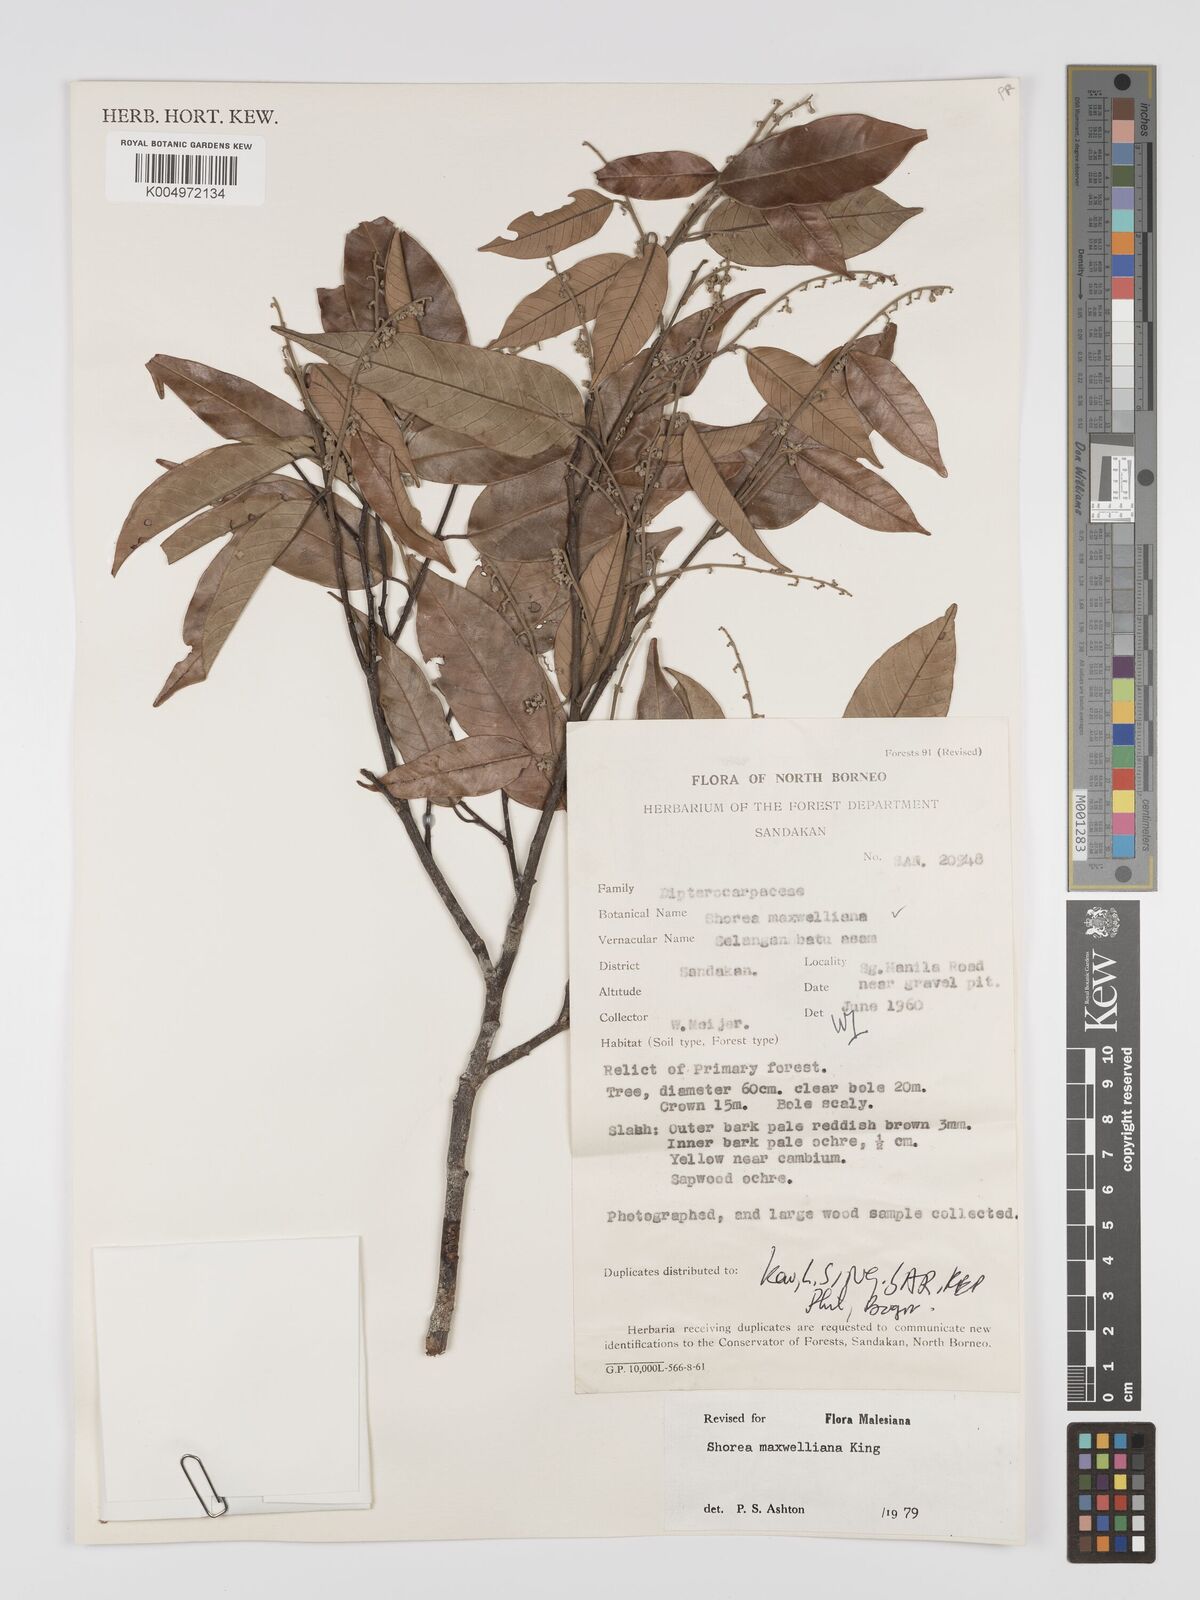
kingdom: Plantae
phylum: Tracheophyta
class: Magnoliopsida
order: Malvales
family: Dipterocarpaceae
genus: Shorea
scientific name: Shorea maxwelliana
